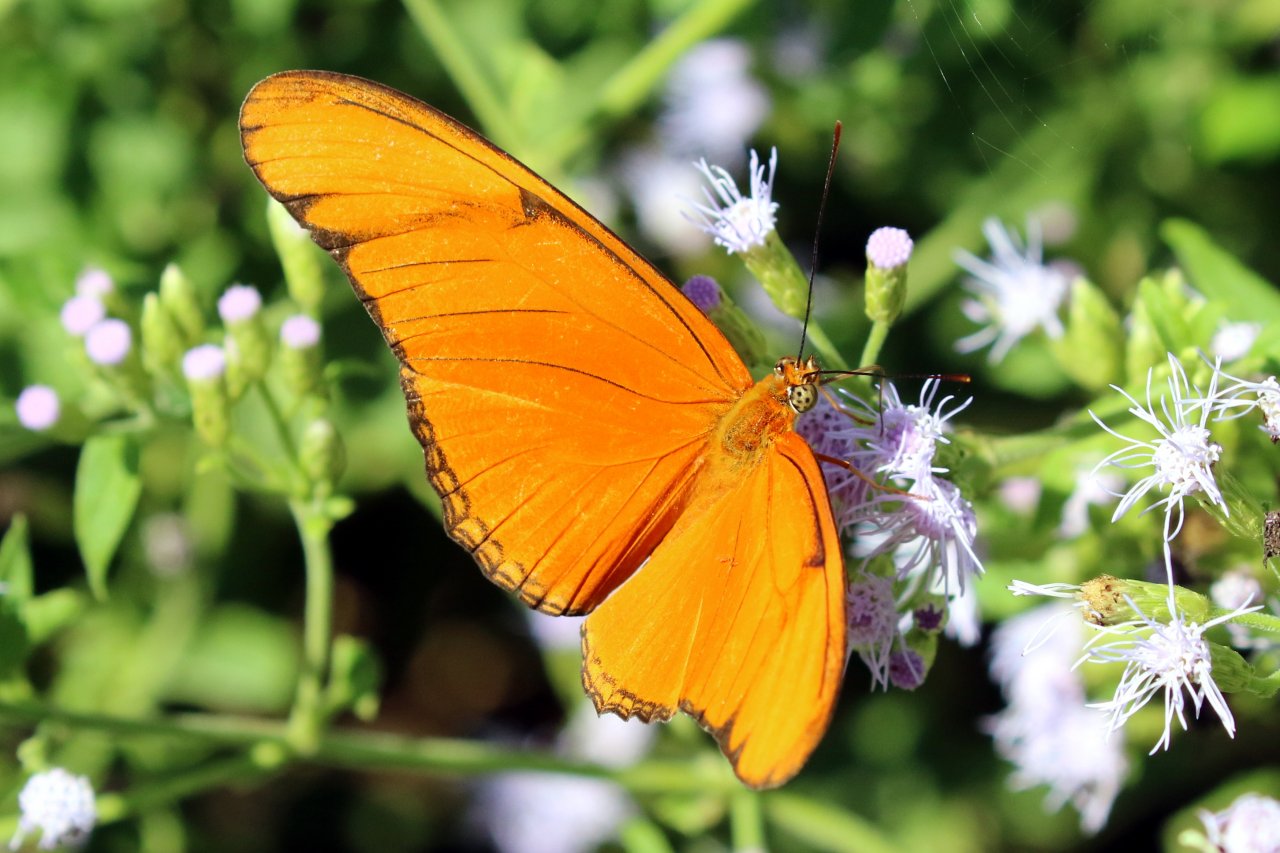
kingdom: Animalia
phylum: Arthropoda
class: Insecta
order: Lepidoptera
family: Nymphalidae
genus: Dryas
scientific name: Dryas iulia
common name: Julia
